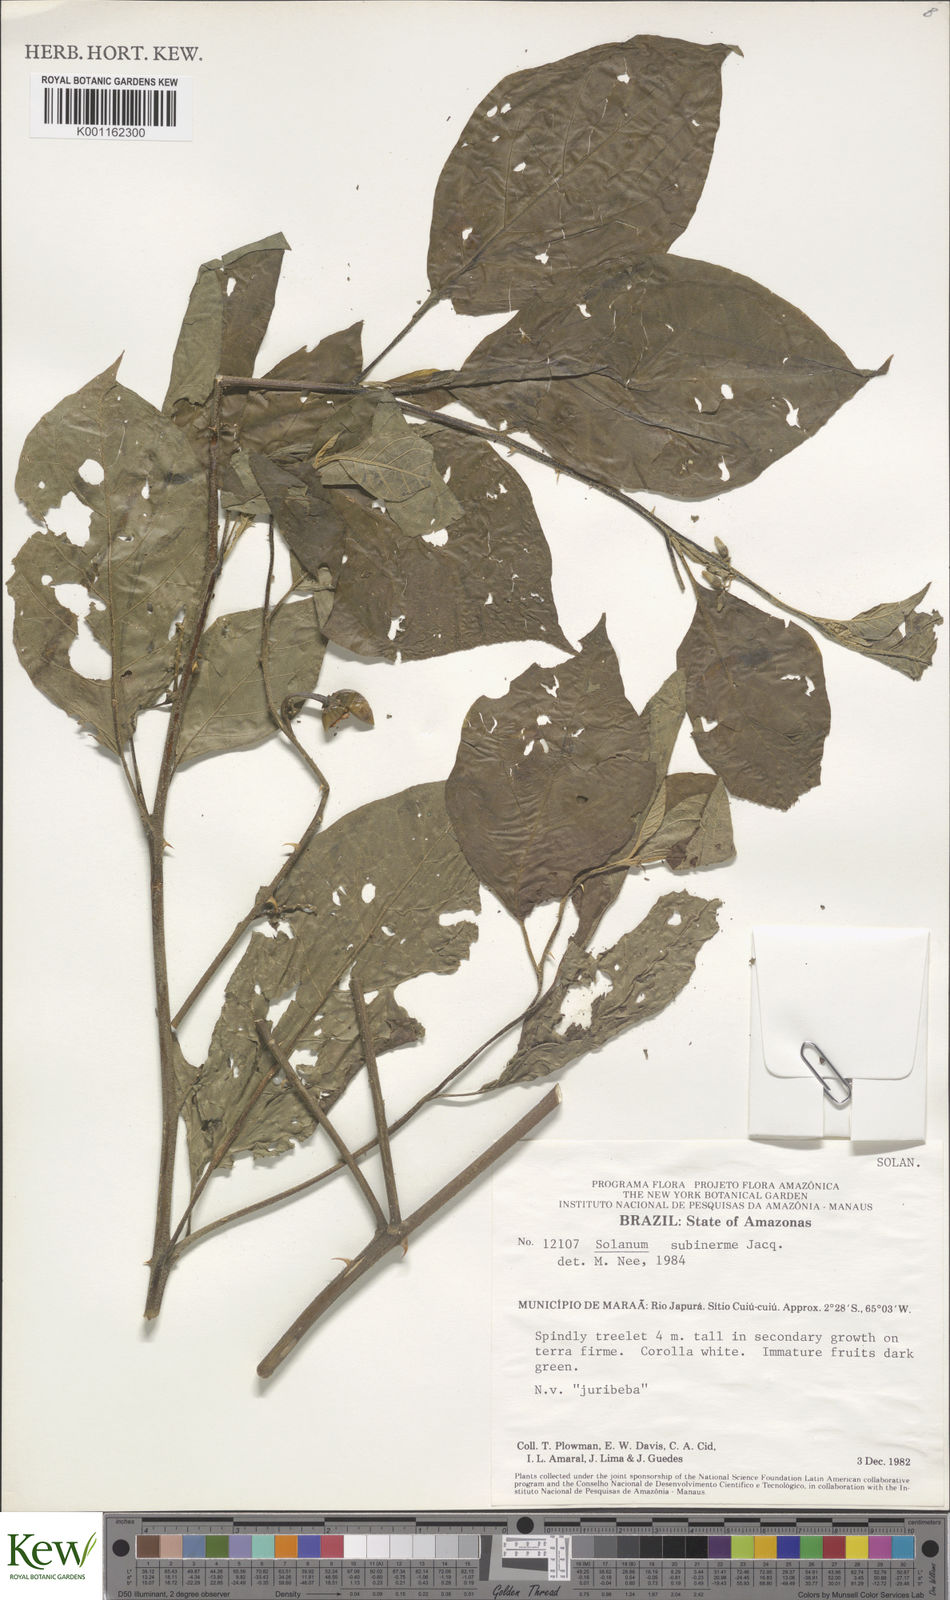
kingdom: Plantae
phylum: Tracheophyta
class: Magnoliopsida
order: Solanales
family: Solanaceae
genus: Solanum
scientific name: Solanum subinerme
